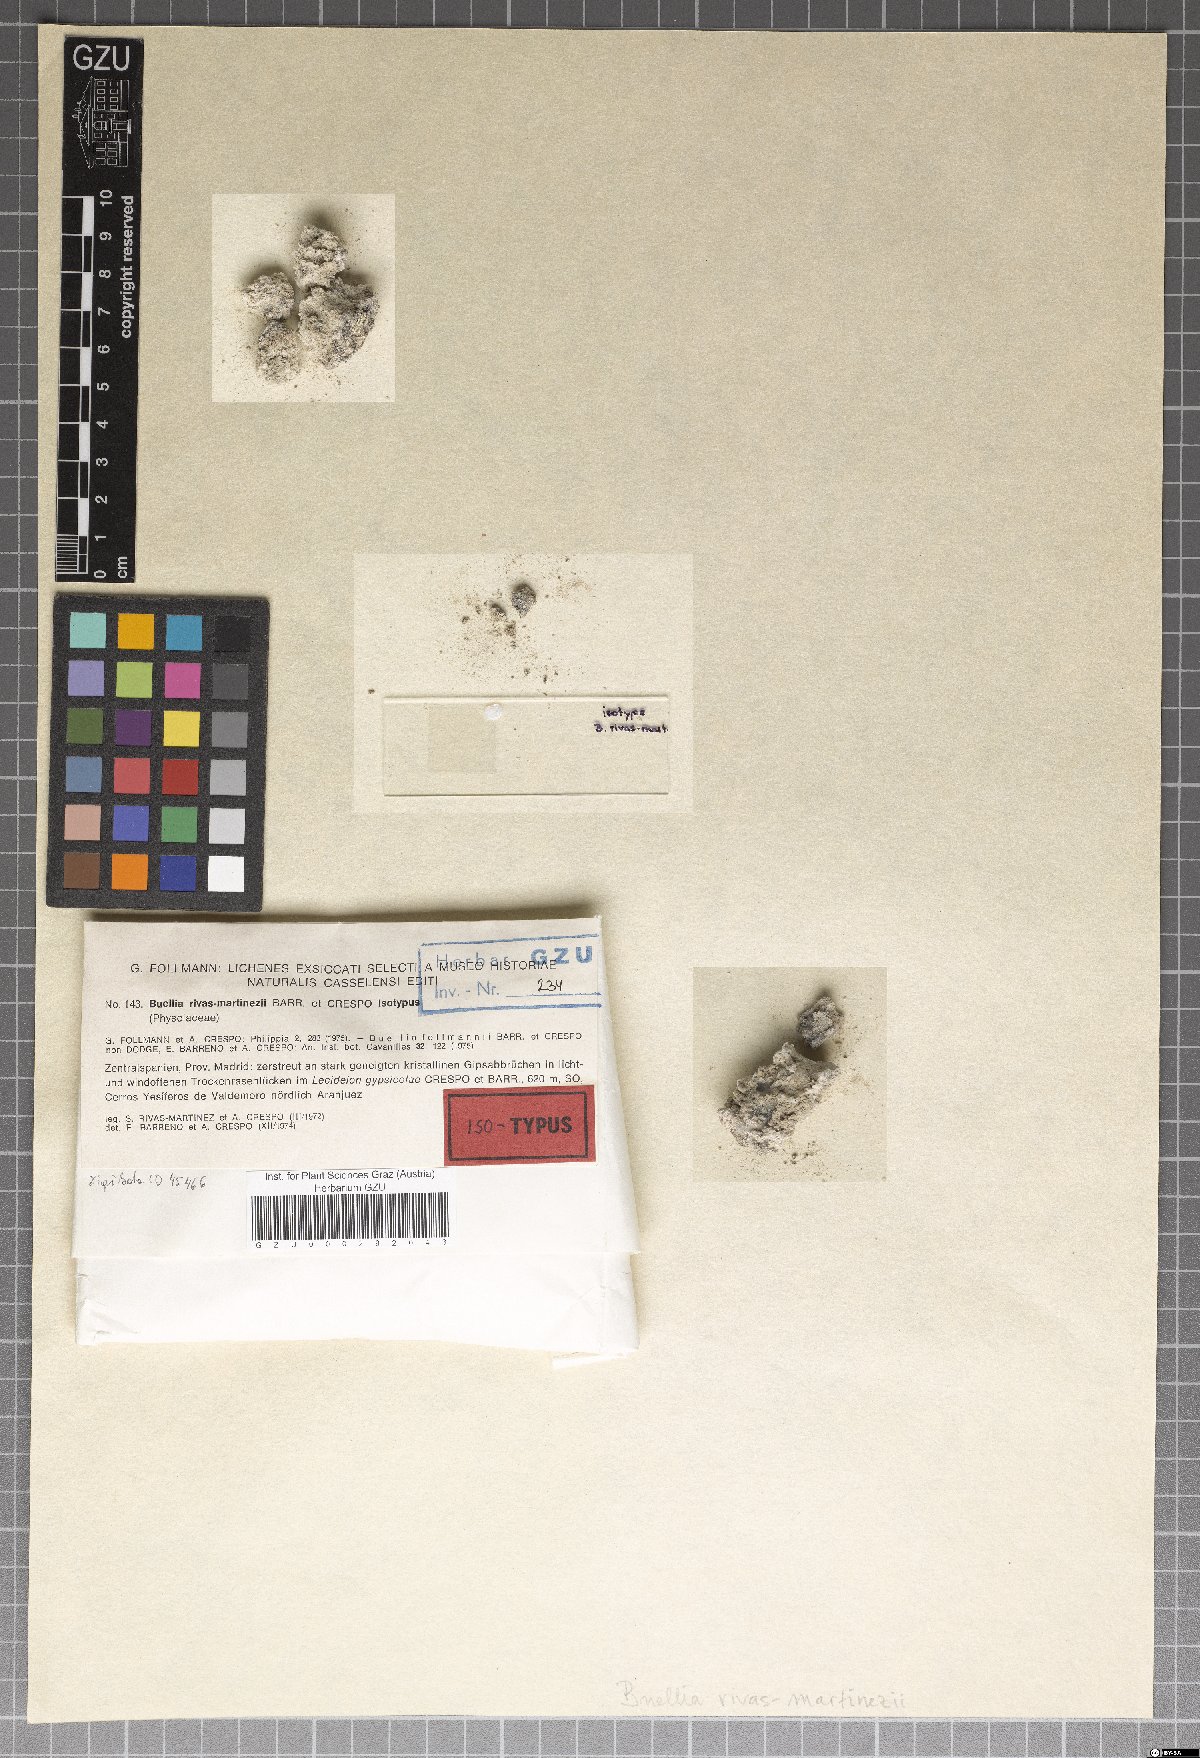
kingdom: Fungi
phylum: Ascomycota
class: Lecanoromycetes
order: Caliciales
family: Caliciaceae
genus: Diplotomma
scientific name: Diplotomma rivas-martinezii
